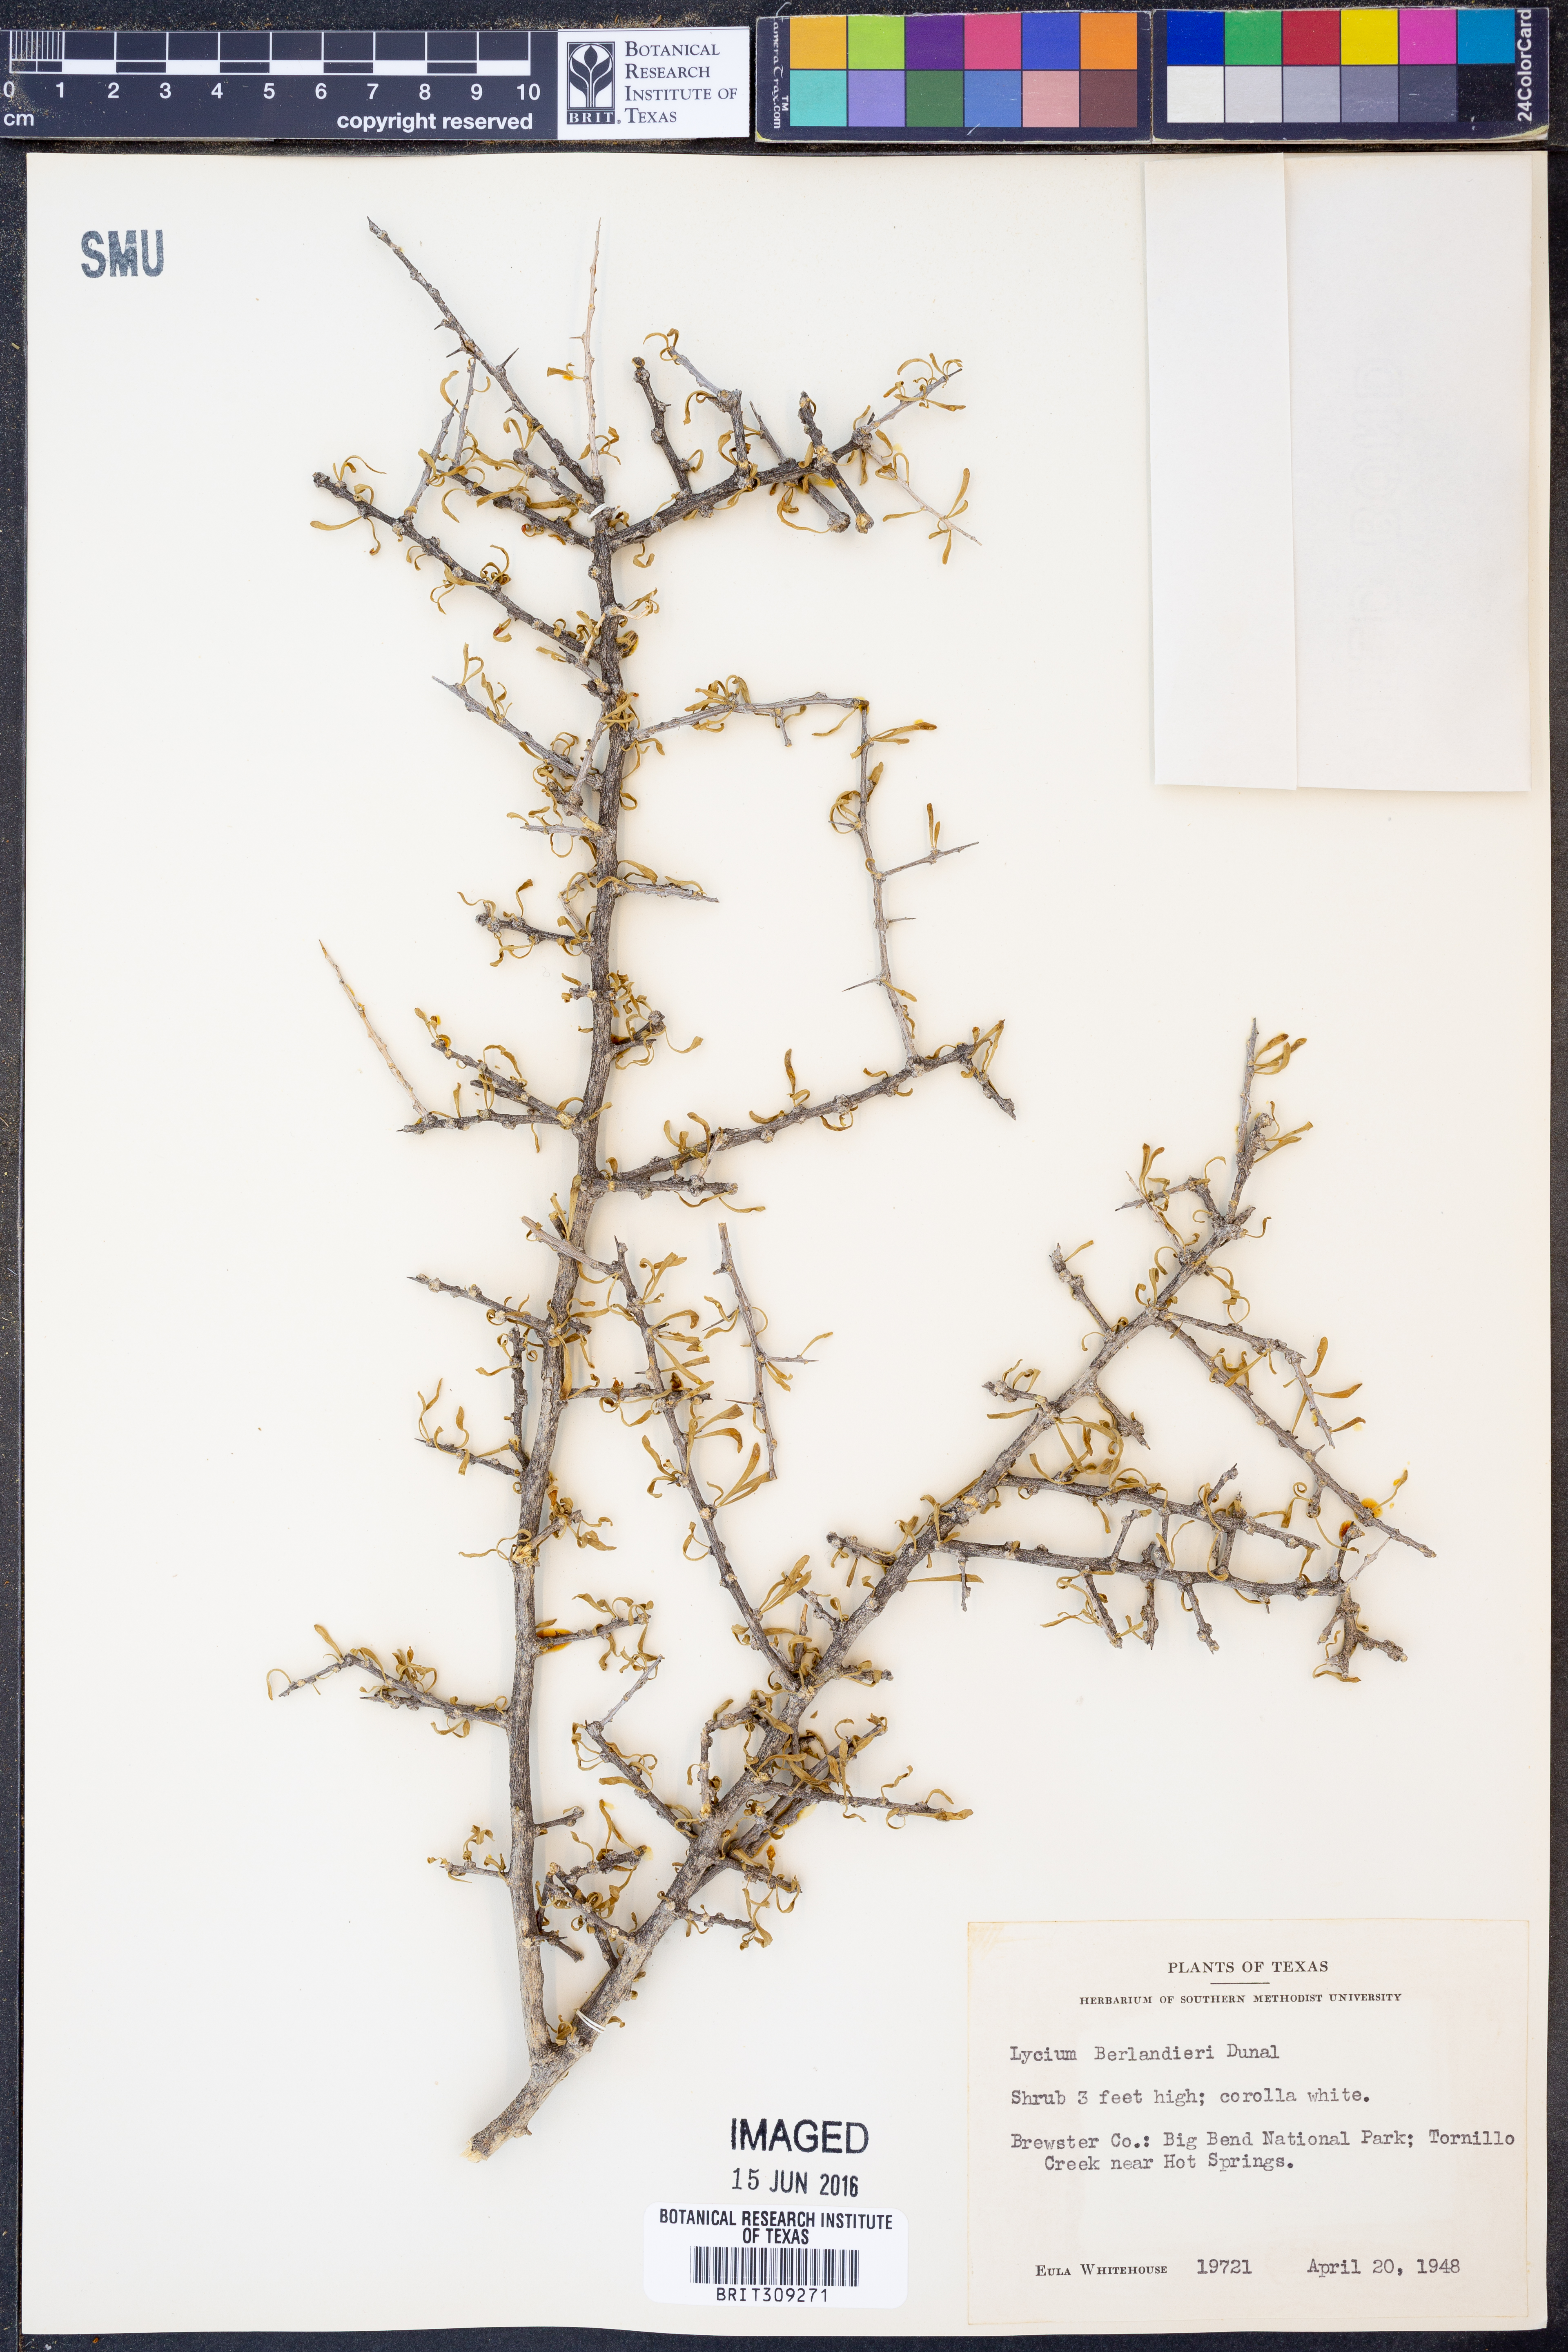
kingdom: Plantae
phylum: Tracheophyta
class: Magnoliopsida
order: Solanales
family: Solanaceae
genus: Lycium
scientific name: Lycium berlandieri
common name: Berlandier wolfberry
